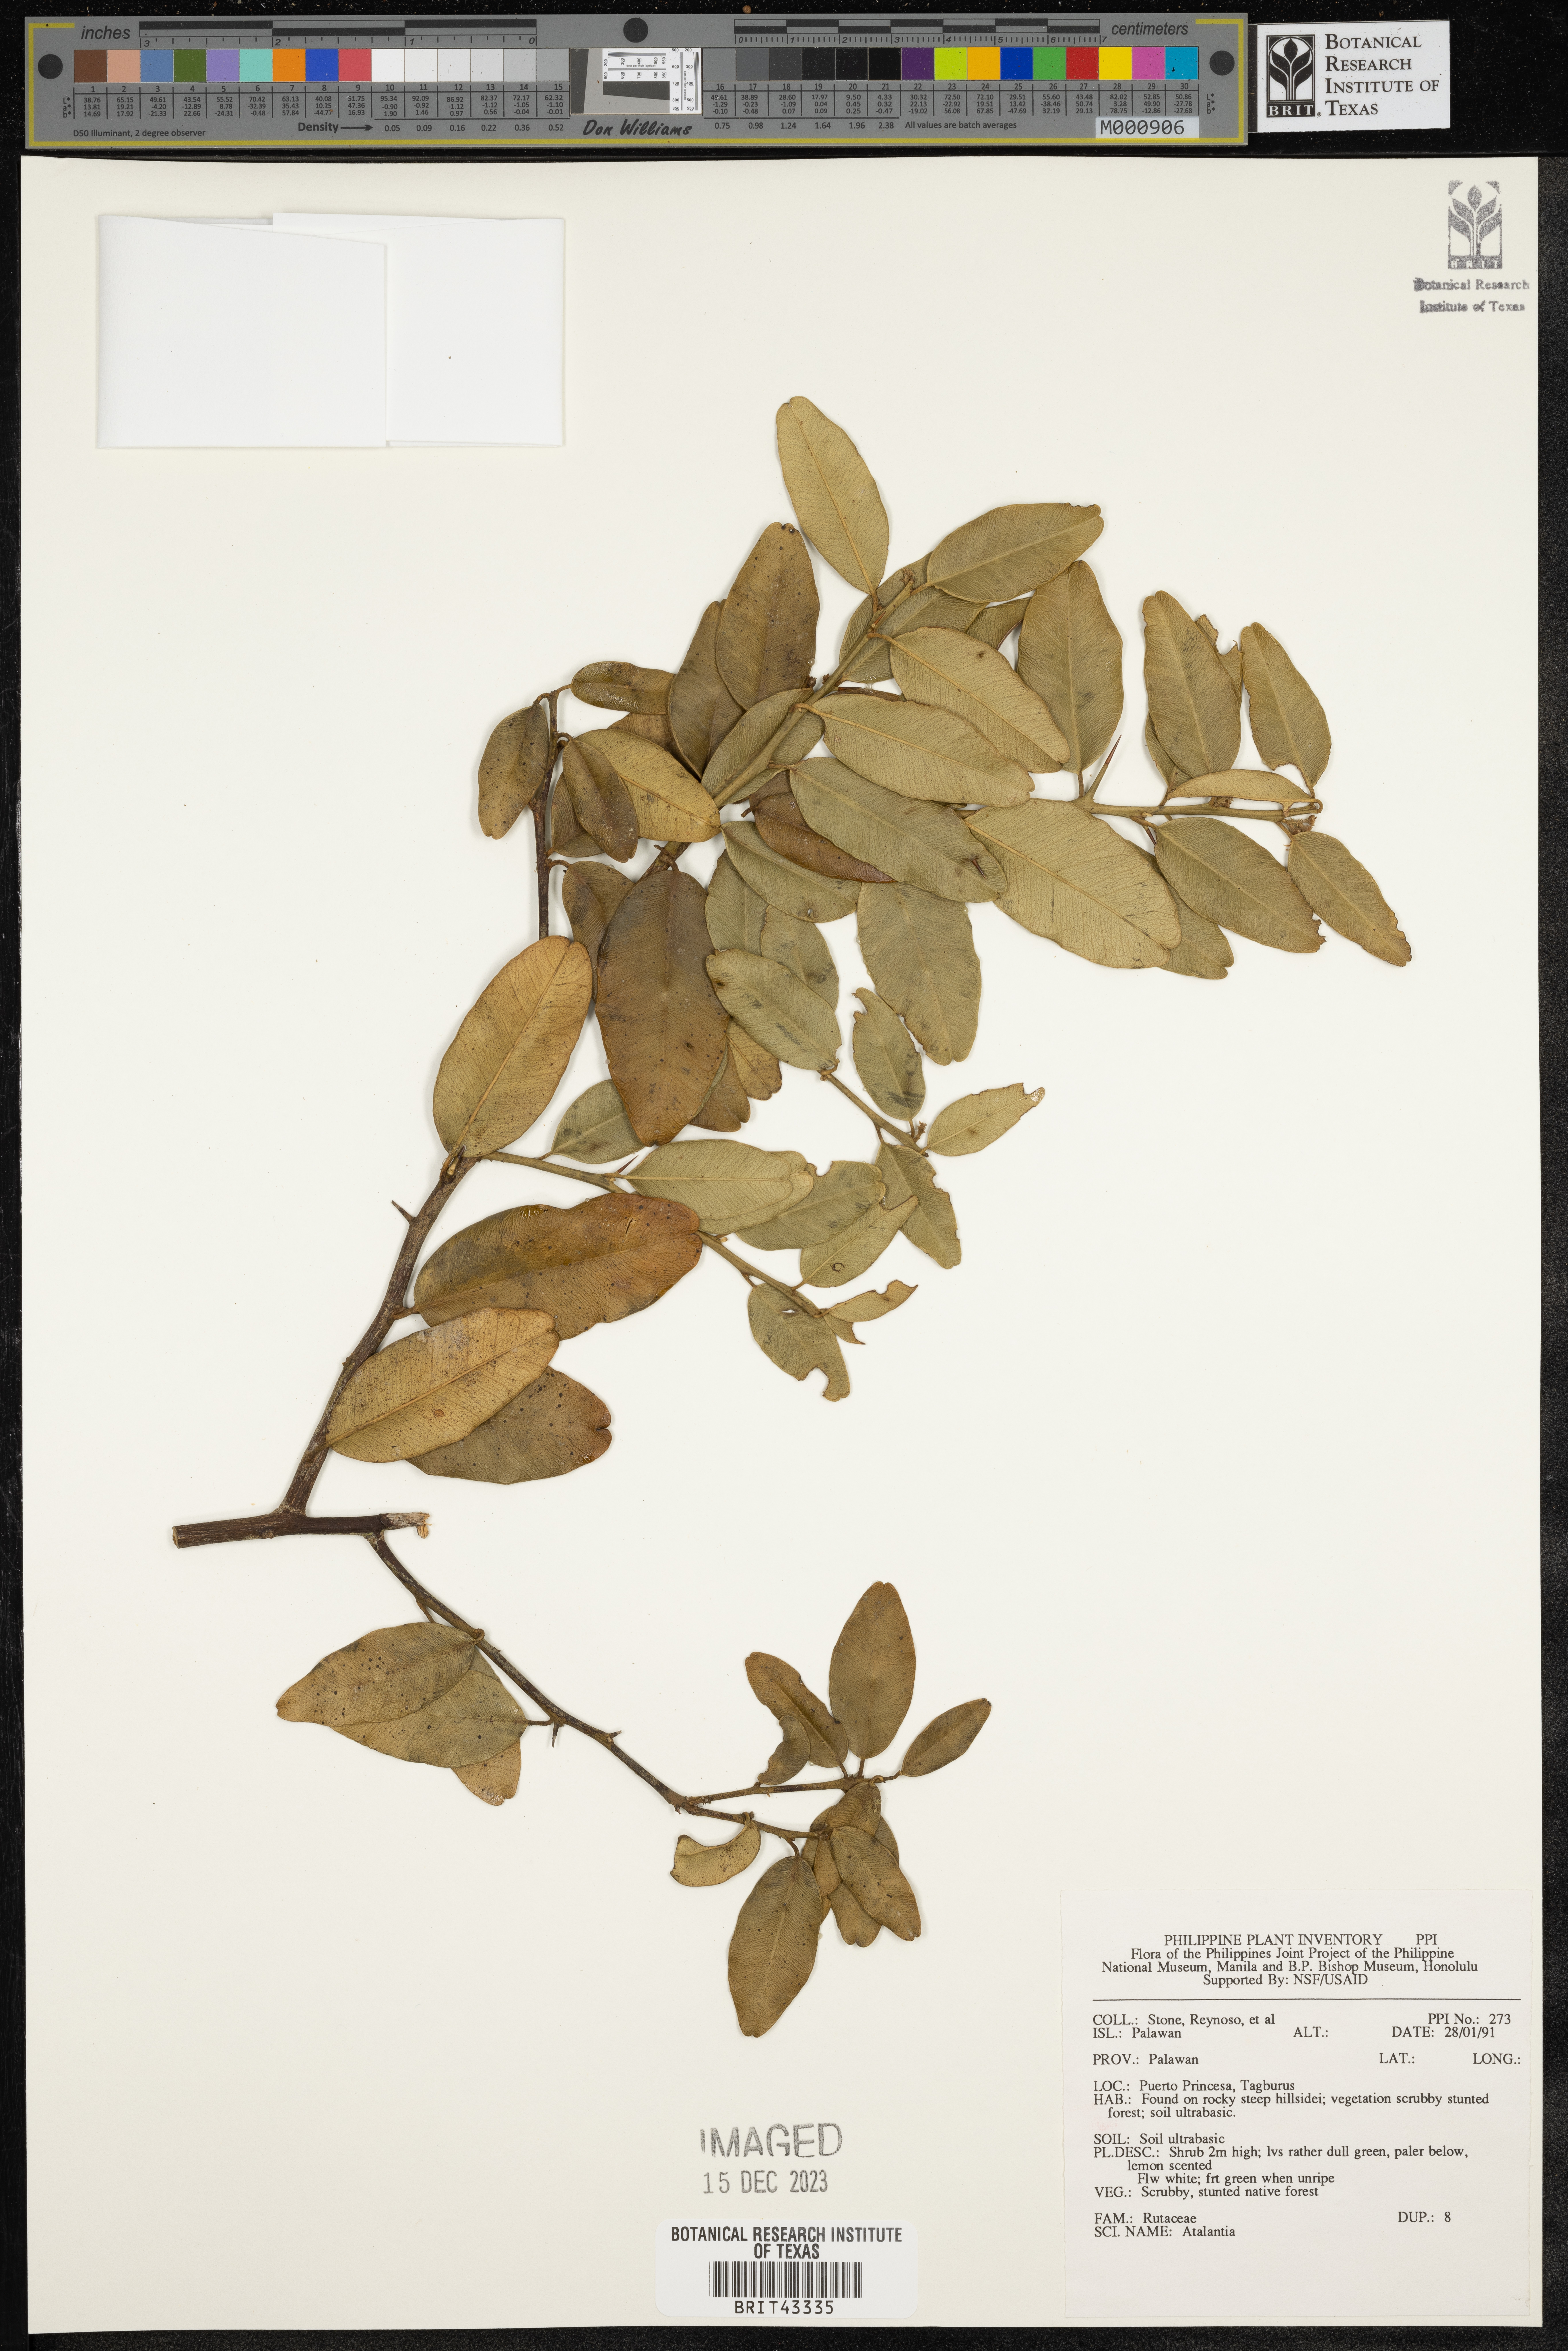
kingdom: Plantae
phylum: Tracheophyta
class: Magnoliopsida
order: Sapindales
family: Rutaceae
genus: Atalantia
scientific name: Atalantia
